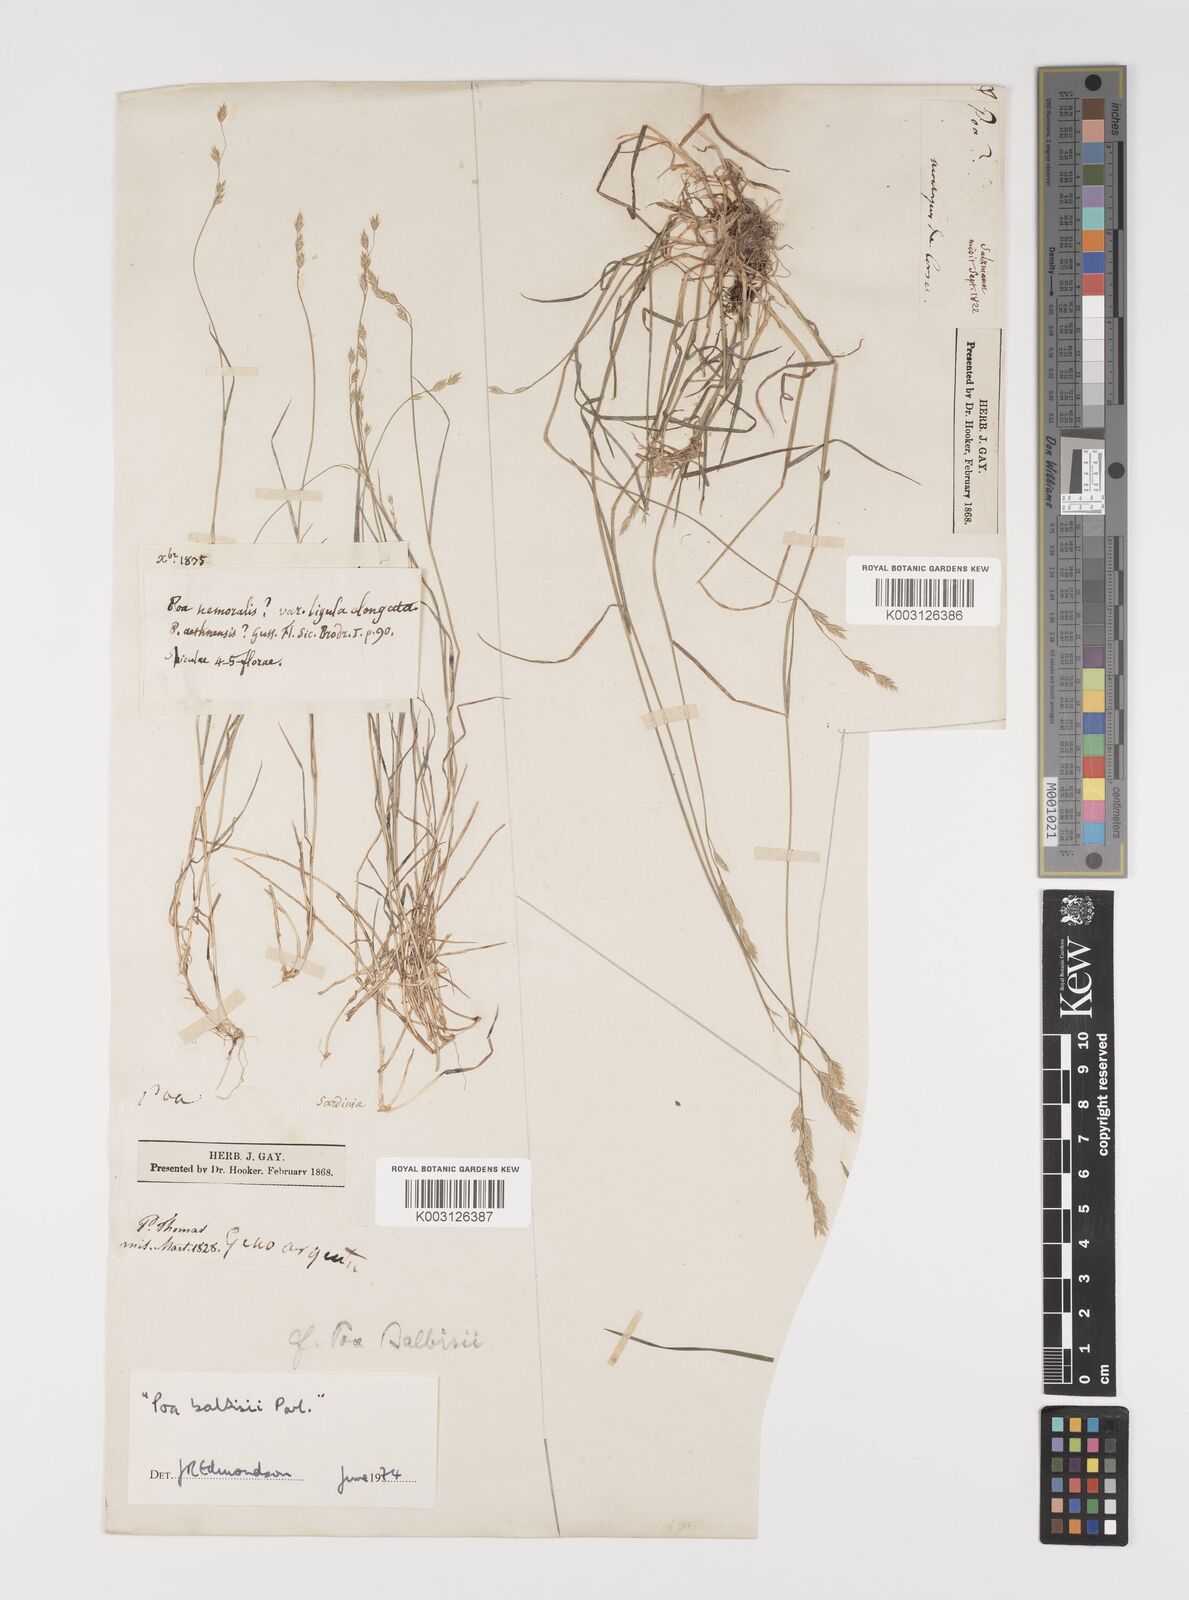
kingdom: Plantae
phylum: Tracheophyta
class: Liliopsida
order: Poales
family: Poaceae
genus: Poa
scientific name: Poa glauca
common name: Glaucous bluegrass
